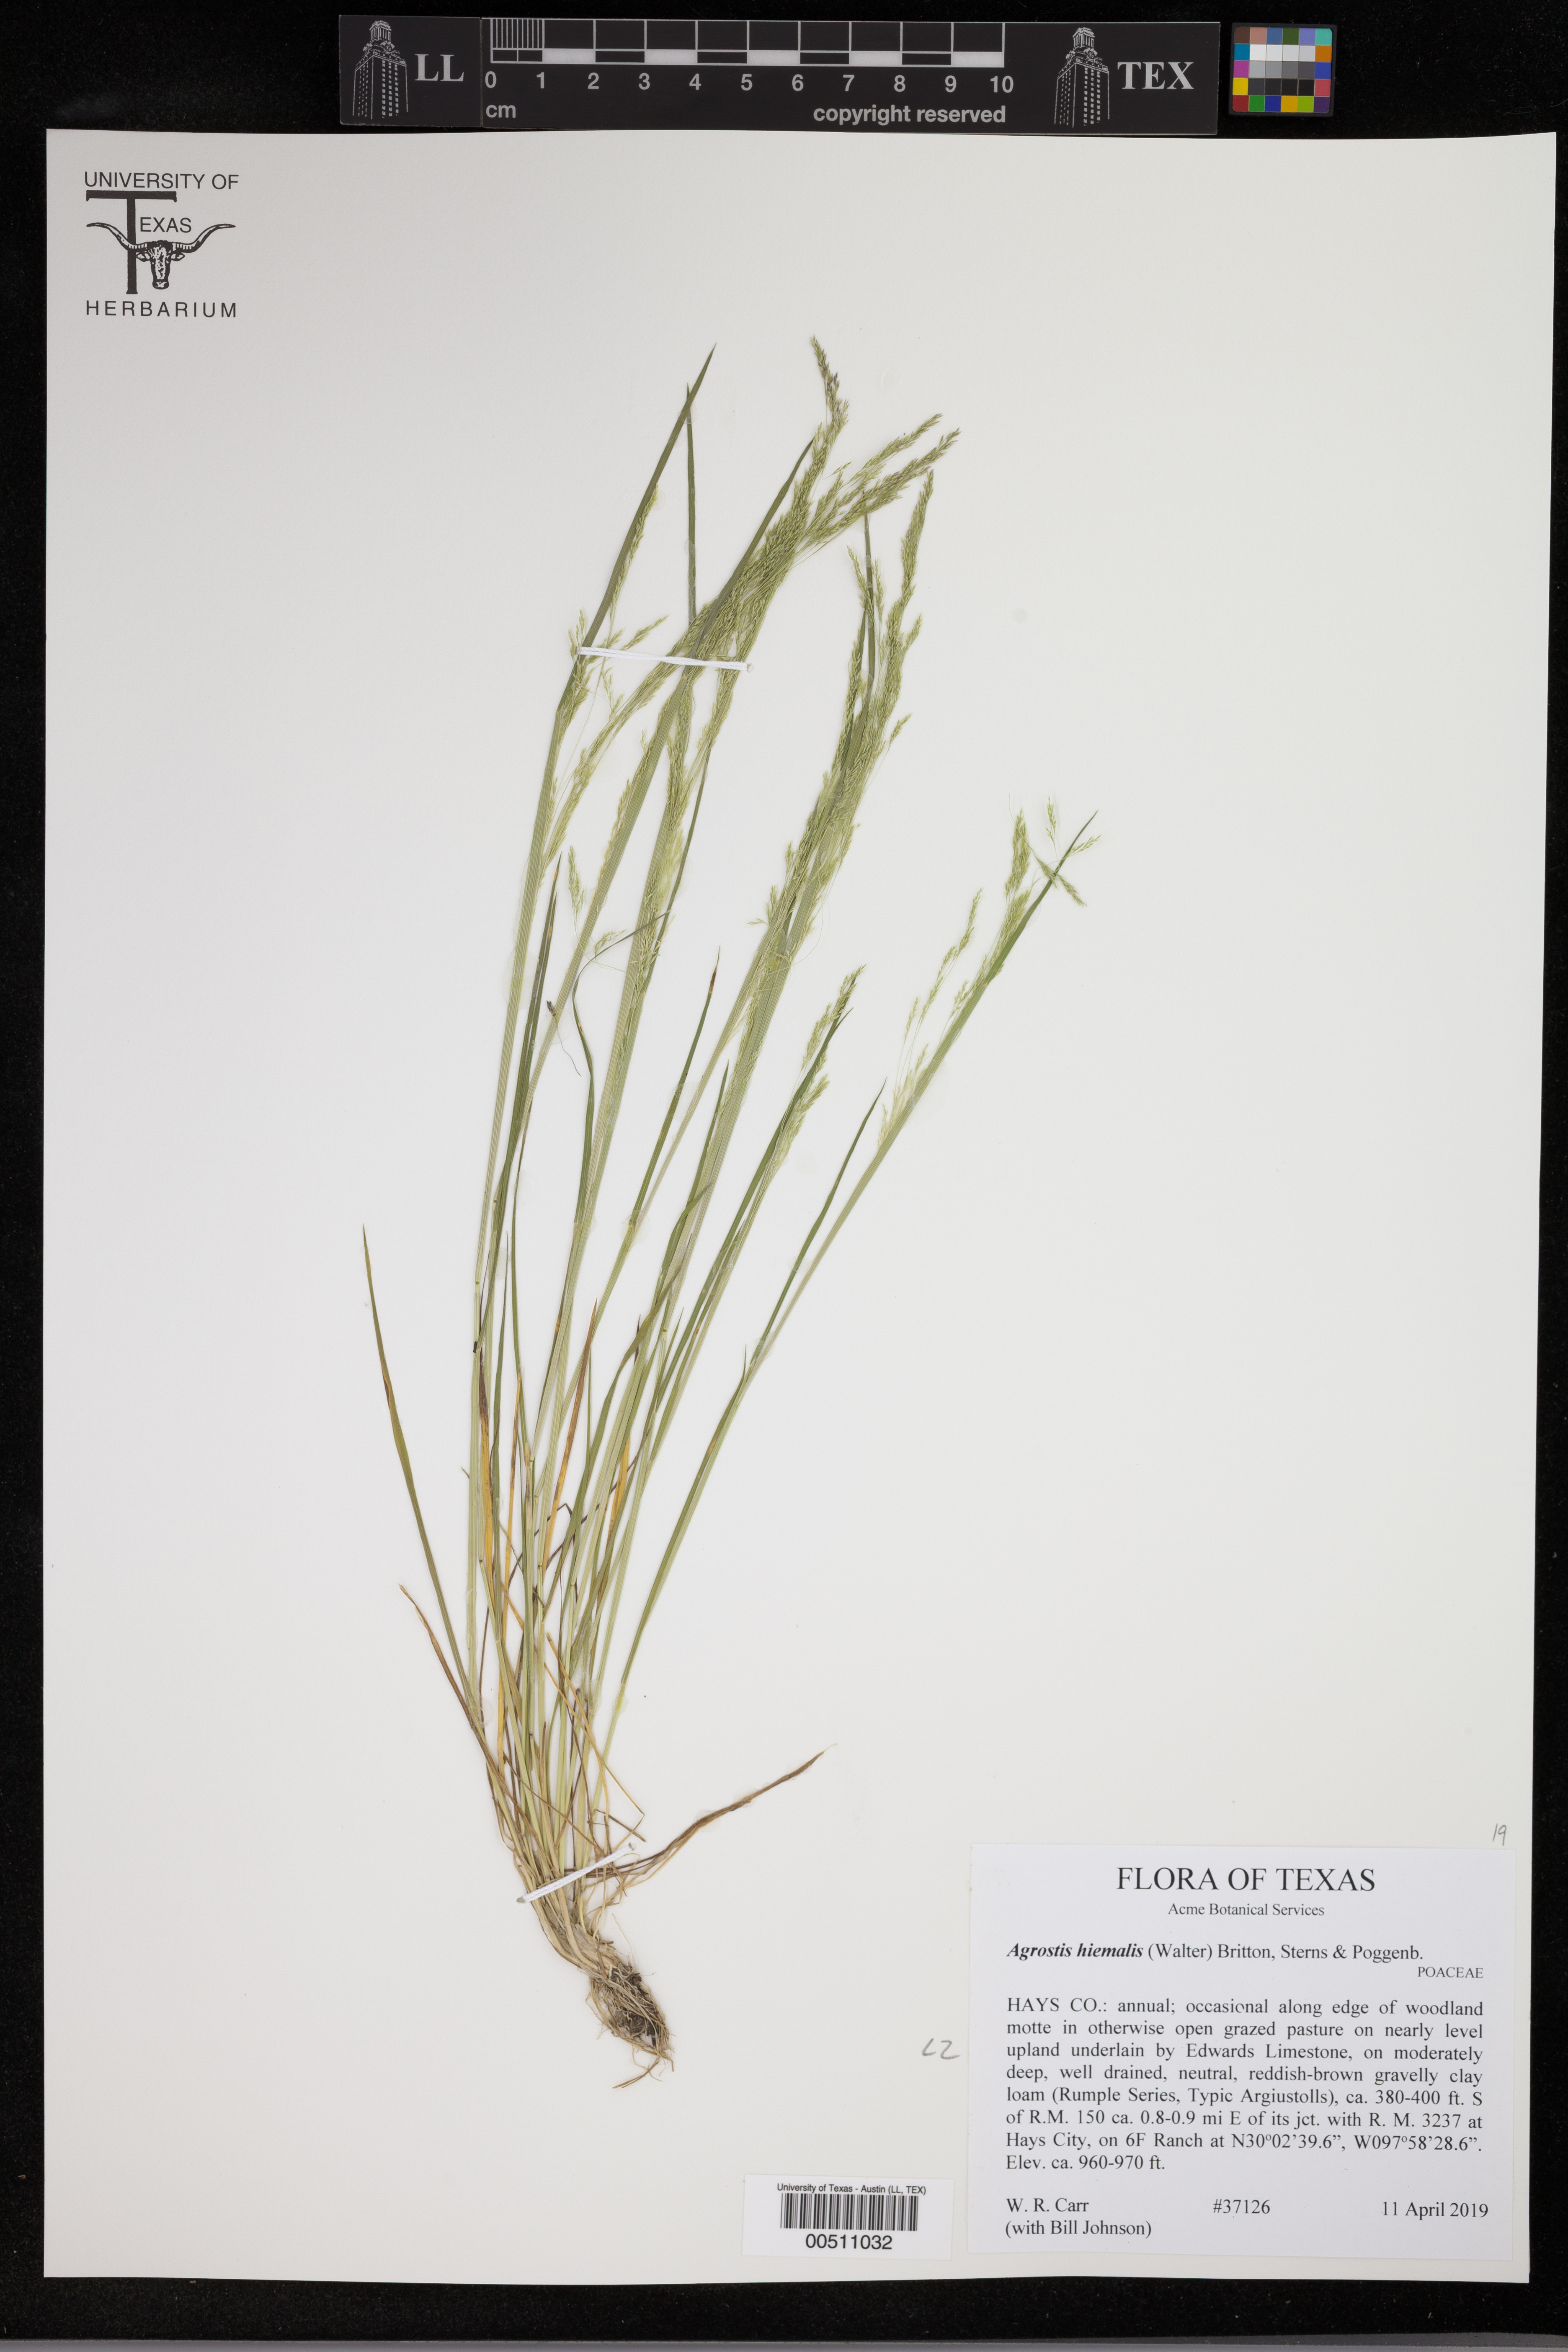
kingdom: Plantae
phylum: Tracheophyta
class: Liliopsida
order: Poales
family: Poaceae
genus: Agrostis
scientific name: Agrostis hyemalis
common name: Small bent
